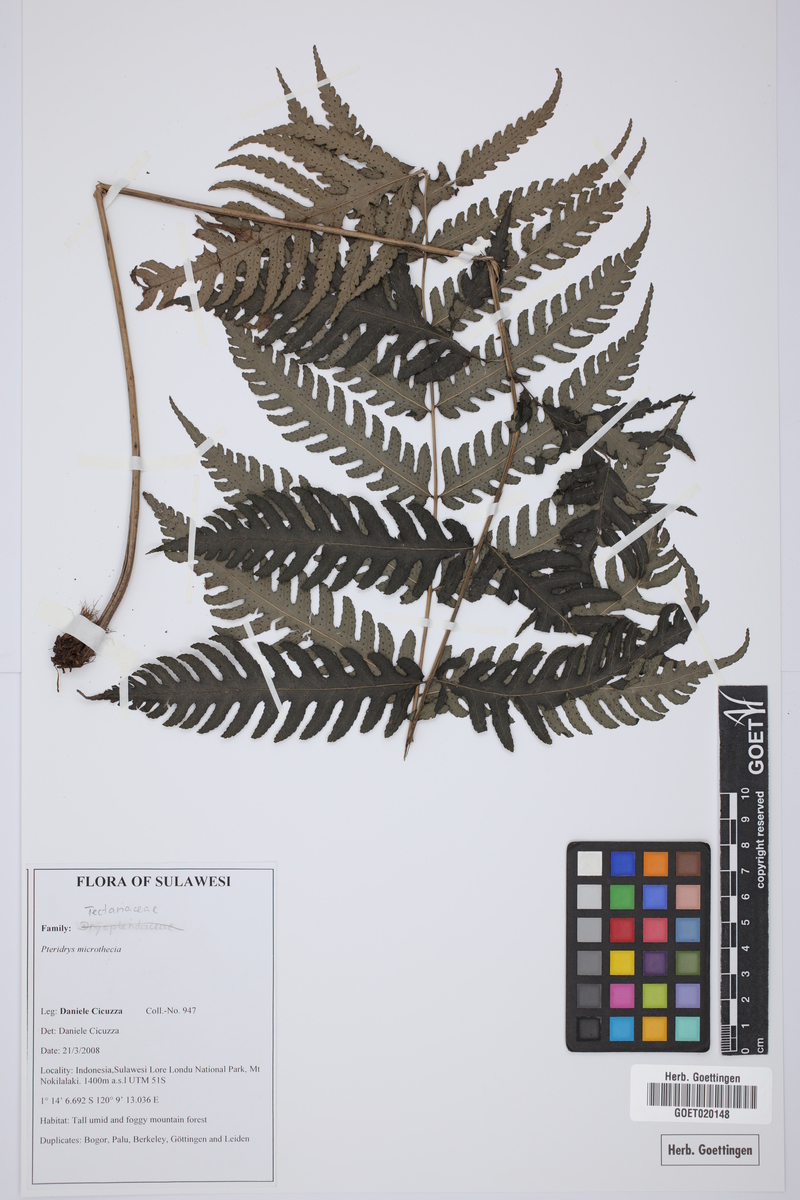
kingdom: Plantae
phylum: Tracheophyta
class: Polypodiopsida
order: Polypodiales
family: Tectariaceae
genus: Pteridrys
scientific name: Pteridrys microthecia
